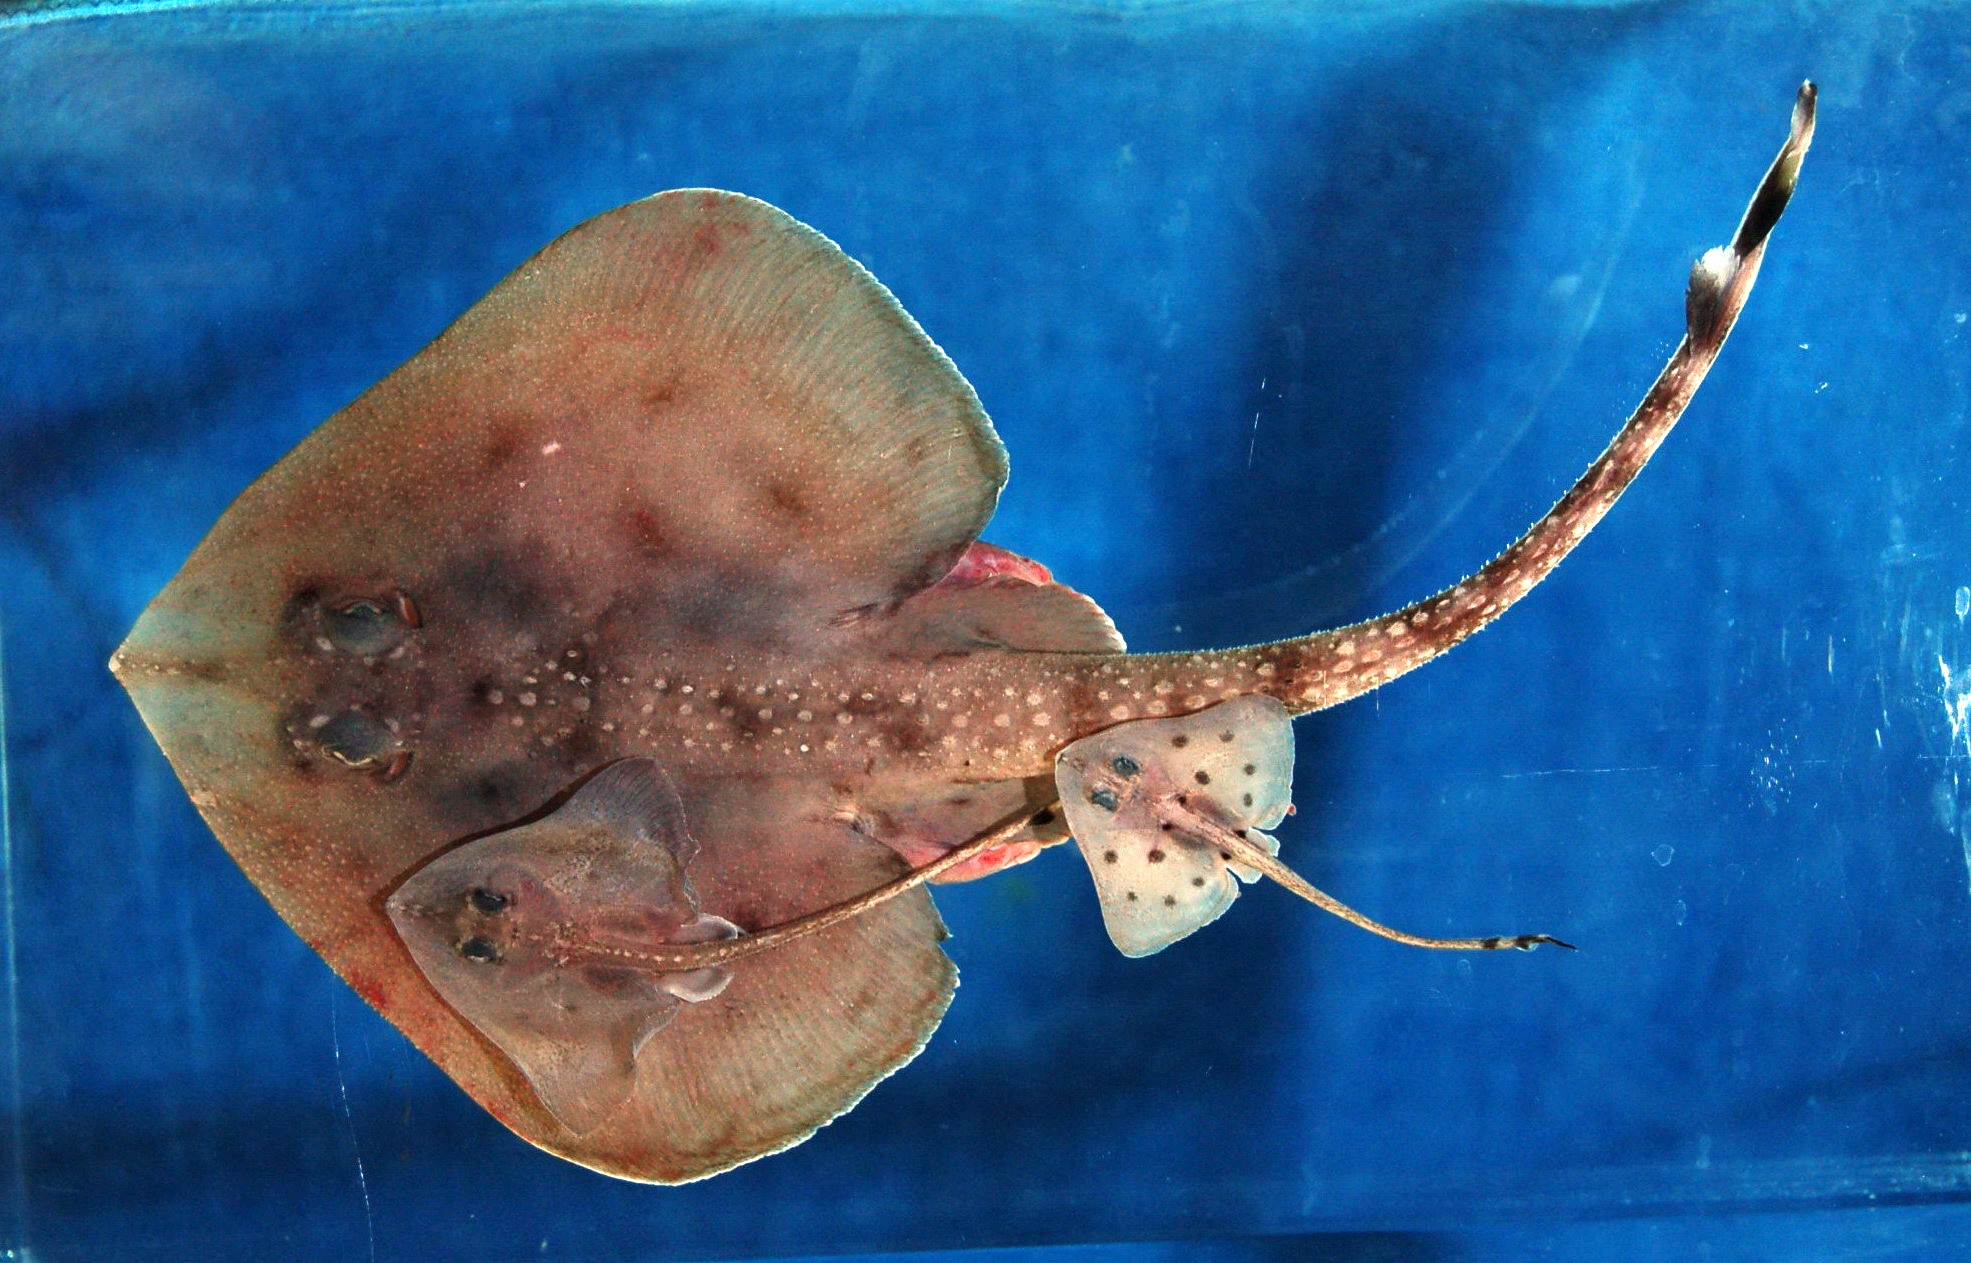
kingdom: Animalia
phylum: Chordata
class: Elasmobranchii
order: Rajiformes
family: Rajidae
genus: Cruriraja
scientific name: Cruriraja parcomaculata
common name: Triangular legskate
